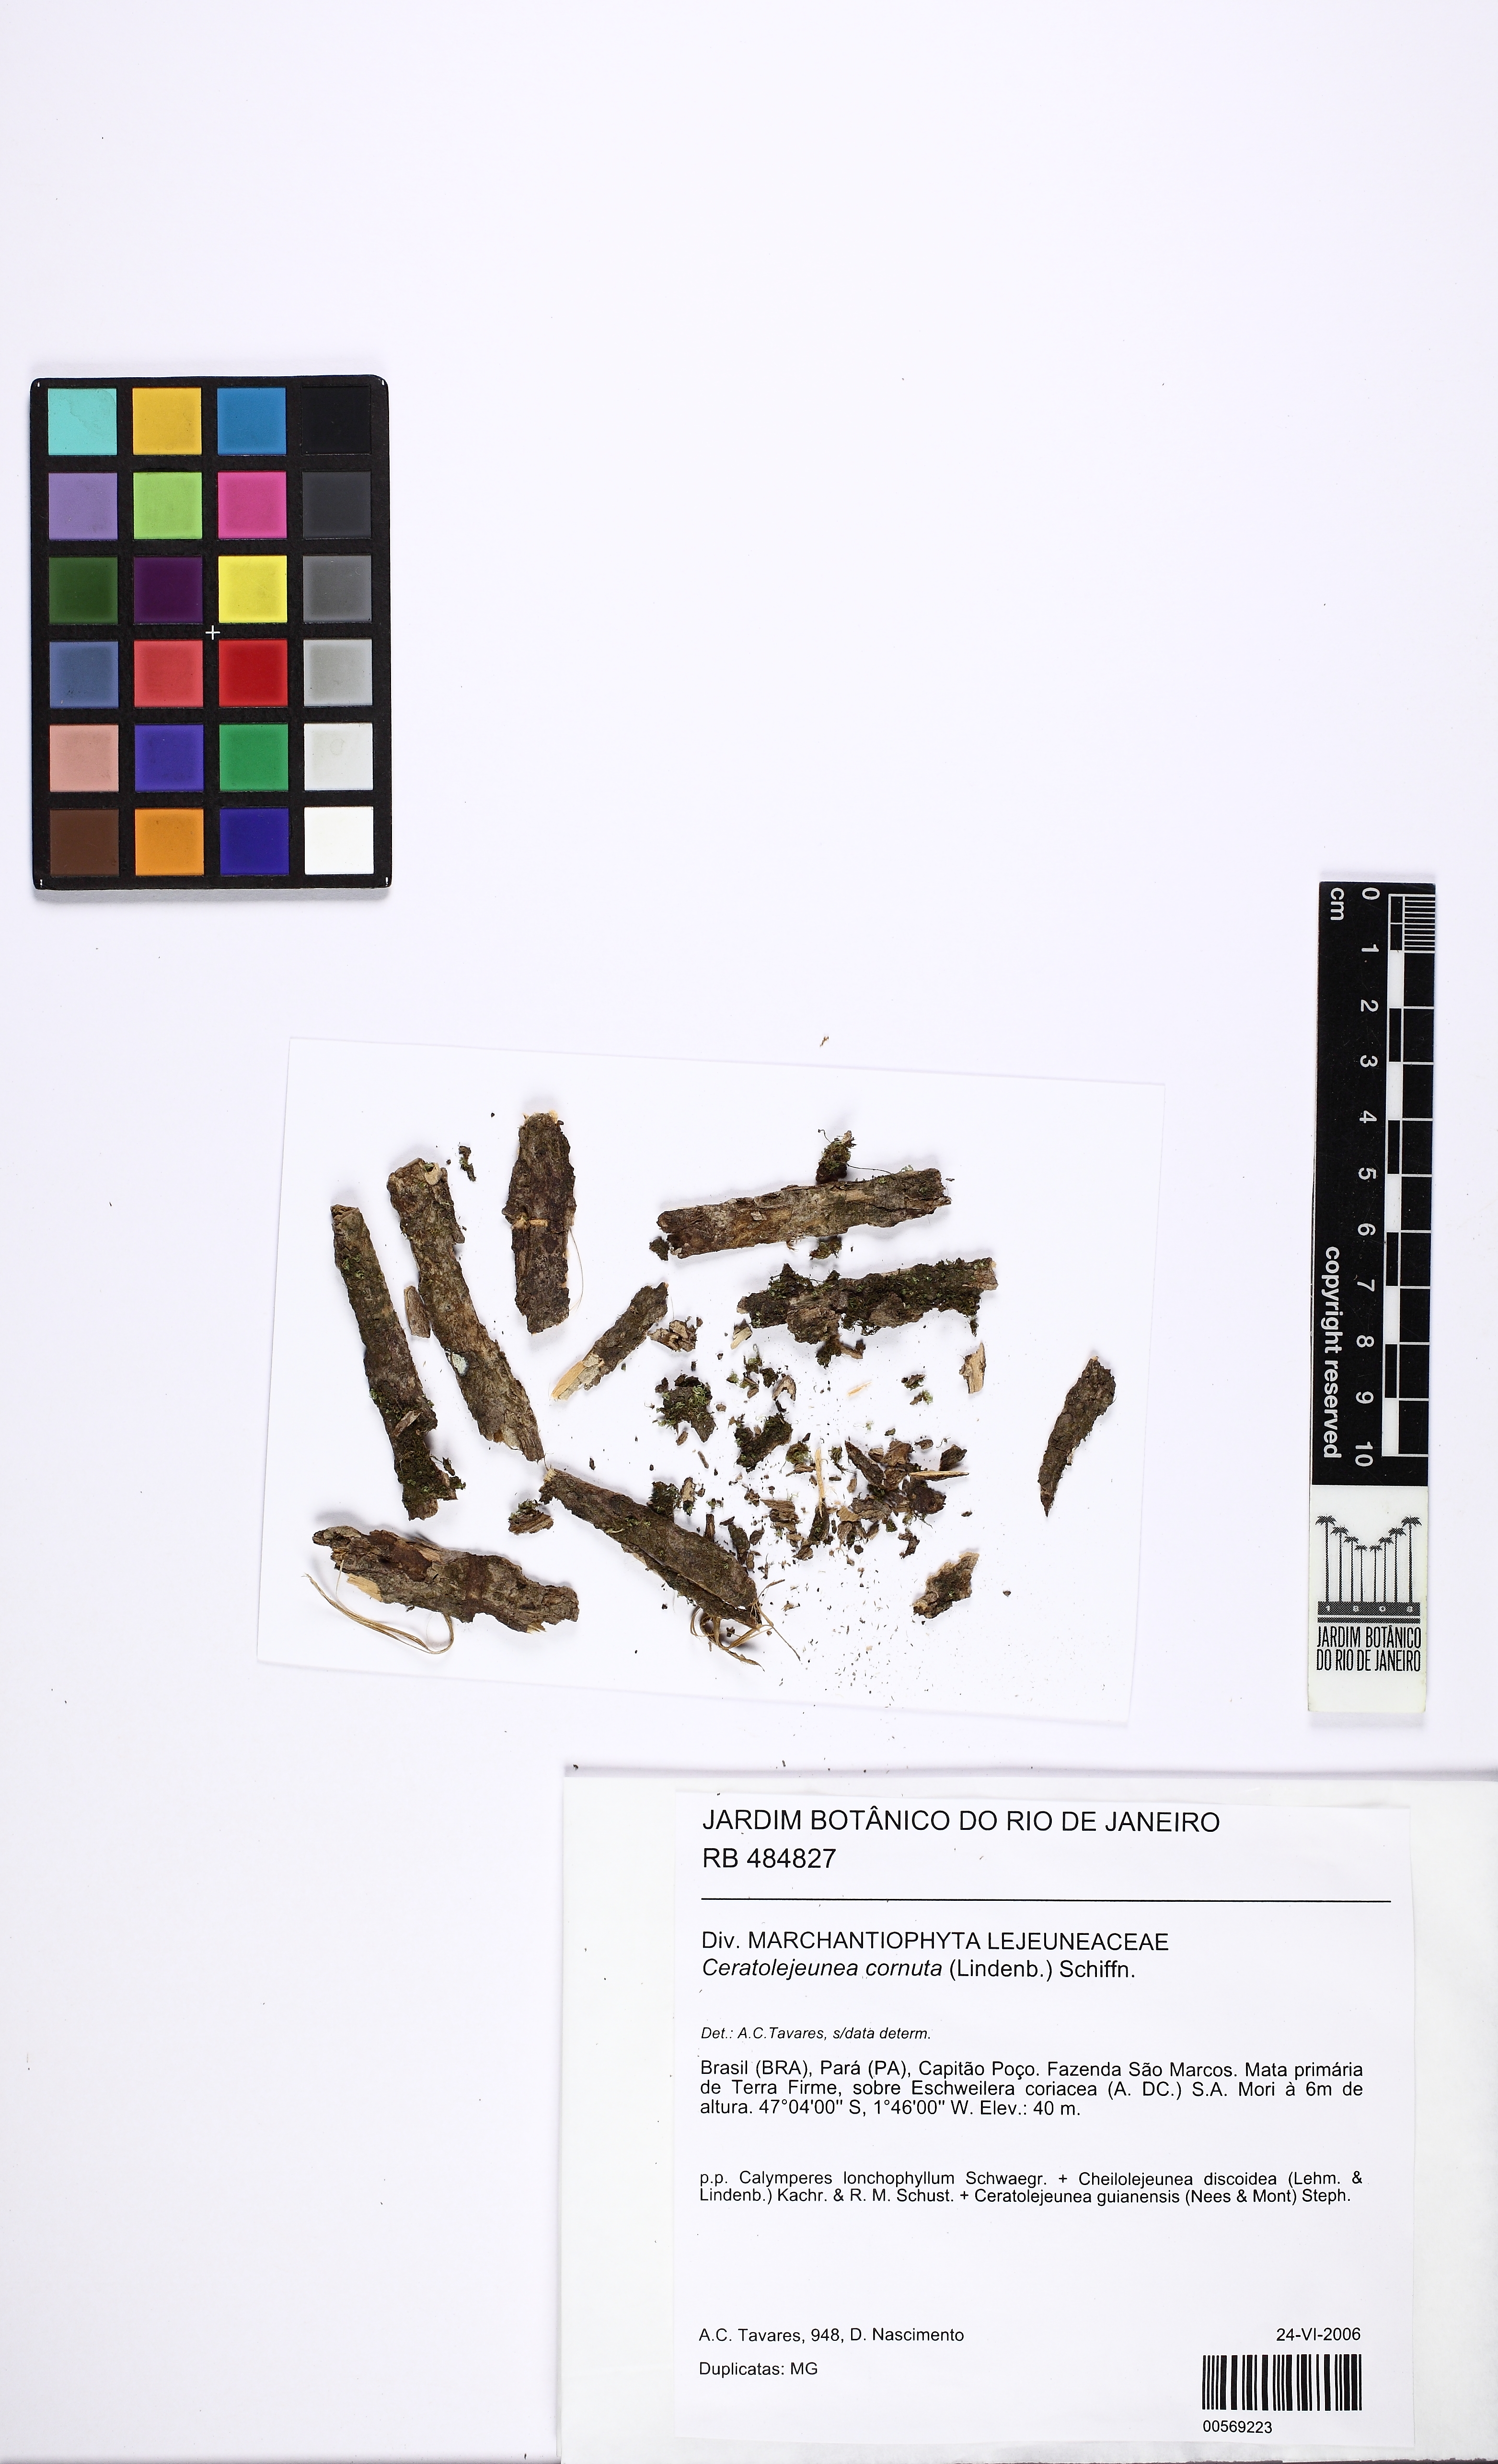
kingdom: Plantae
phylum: Marchantiophyta
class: Jungermanniopsida
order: Porellales
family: Lejeuneaceae
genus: Ceratolejeunea
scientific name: Ceratolejeunea cornuta
